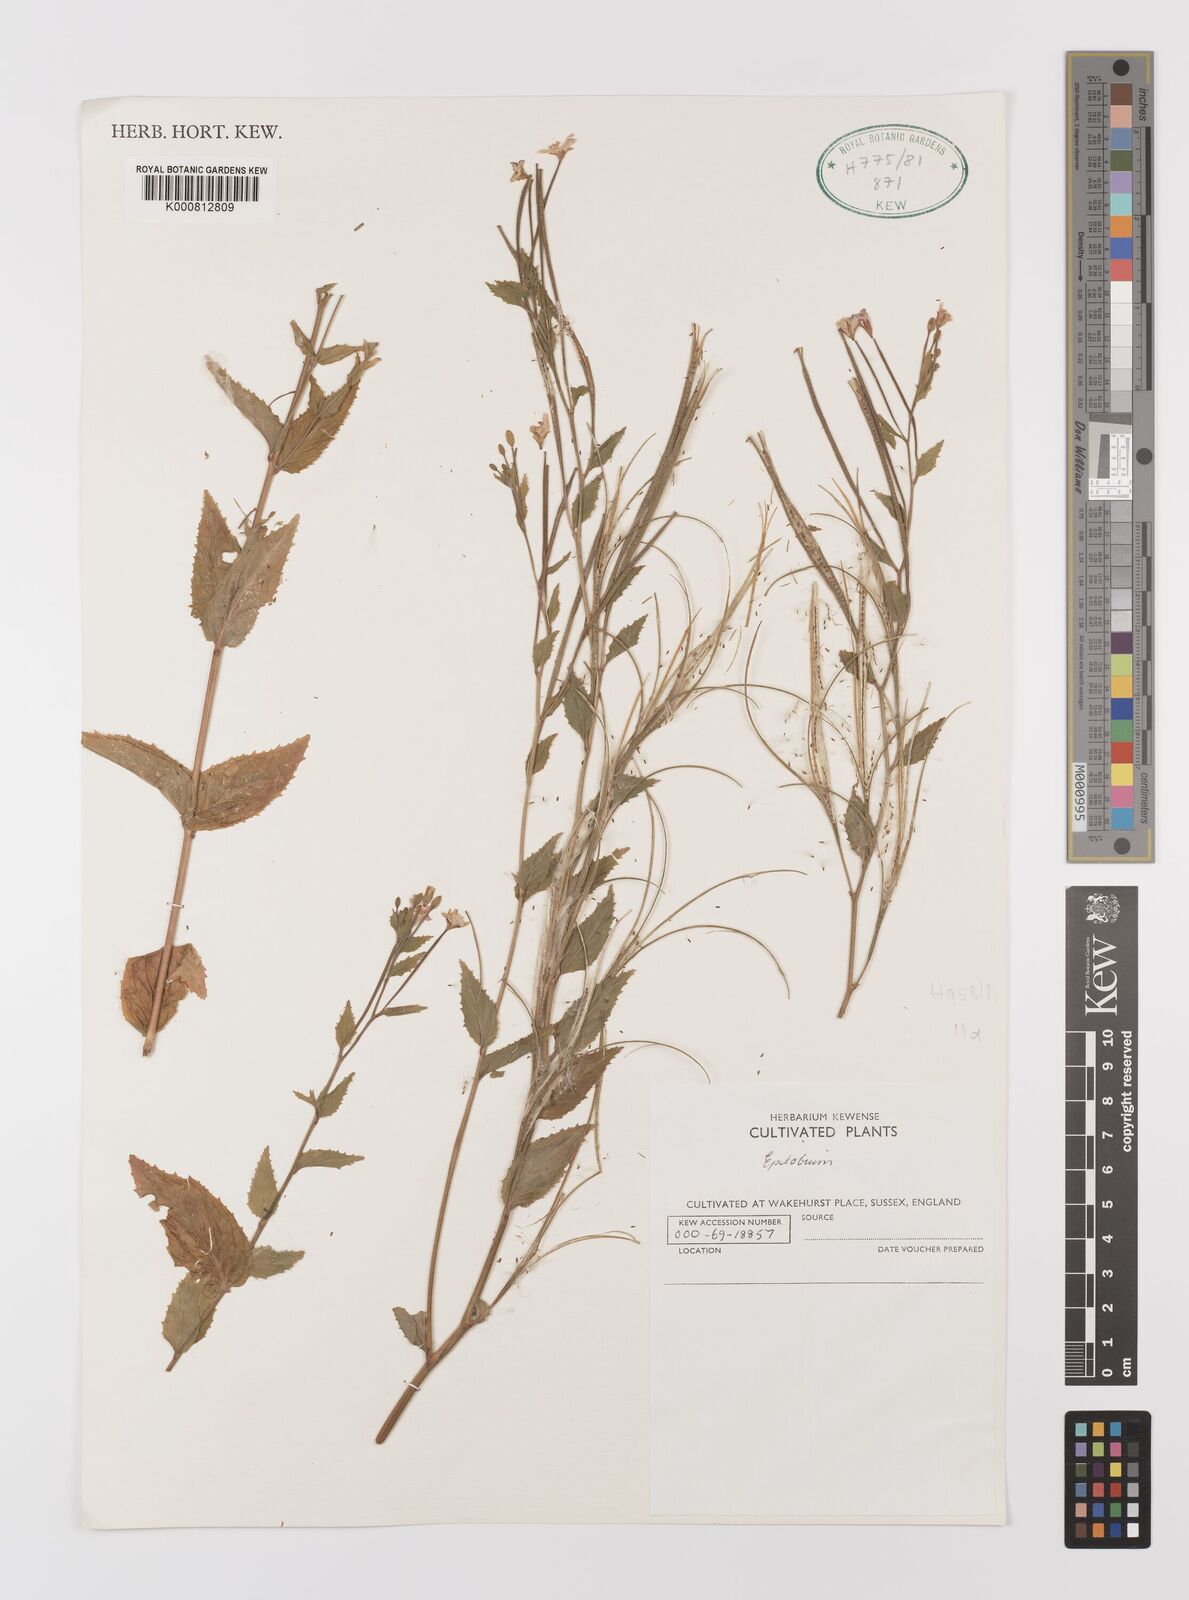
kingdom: Plantae
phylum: Tracheophyta
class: Magnoliopsida
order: Myrtales
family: Onagraceae
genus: Epilobium
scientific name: Epilobium montanum
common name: Broad-leaved willowherb
